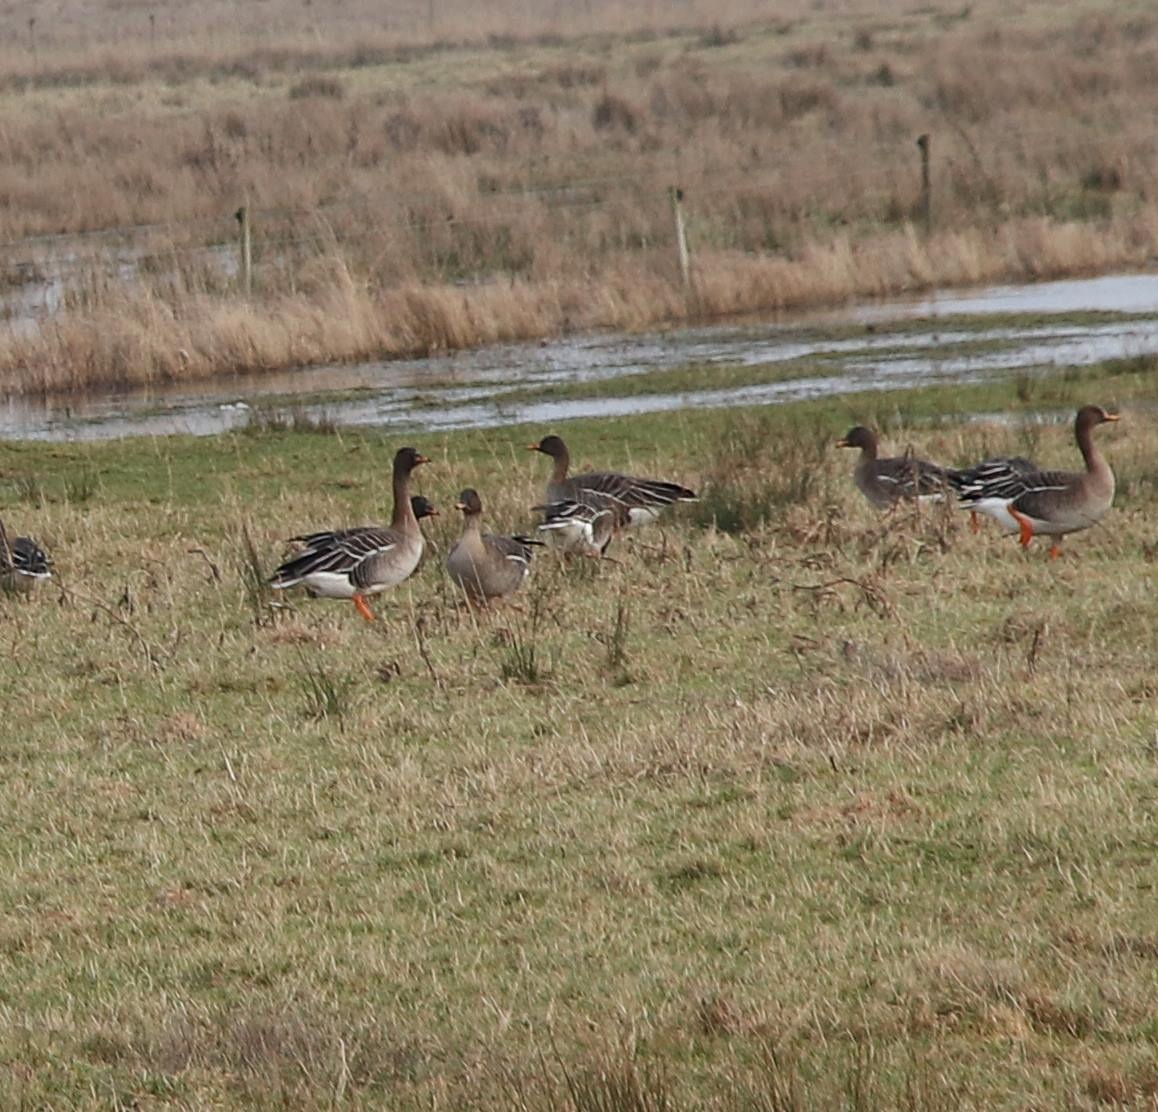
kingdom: Animalia
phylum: Chordata
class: Aves
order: Anseriformes
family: Anatidae
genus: Anser
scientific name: Anser fabalis
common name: Tajgasædgås
